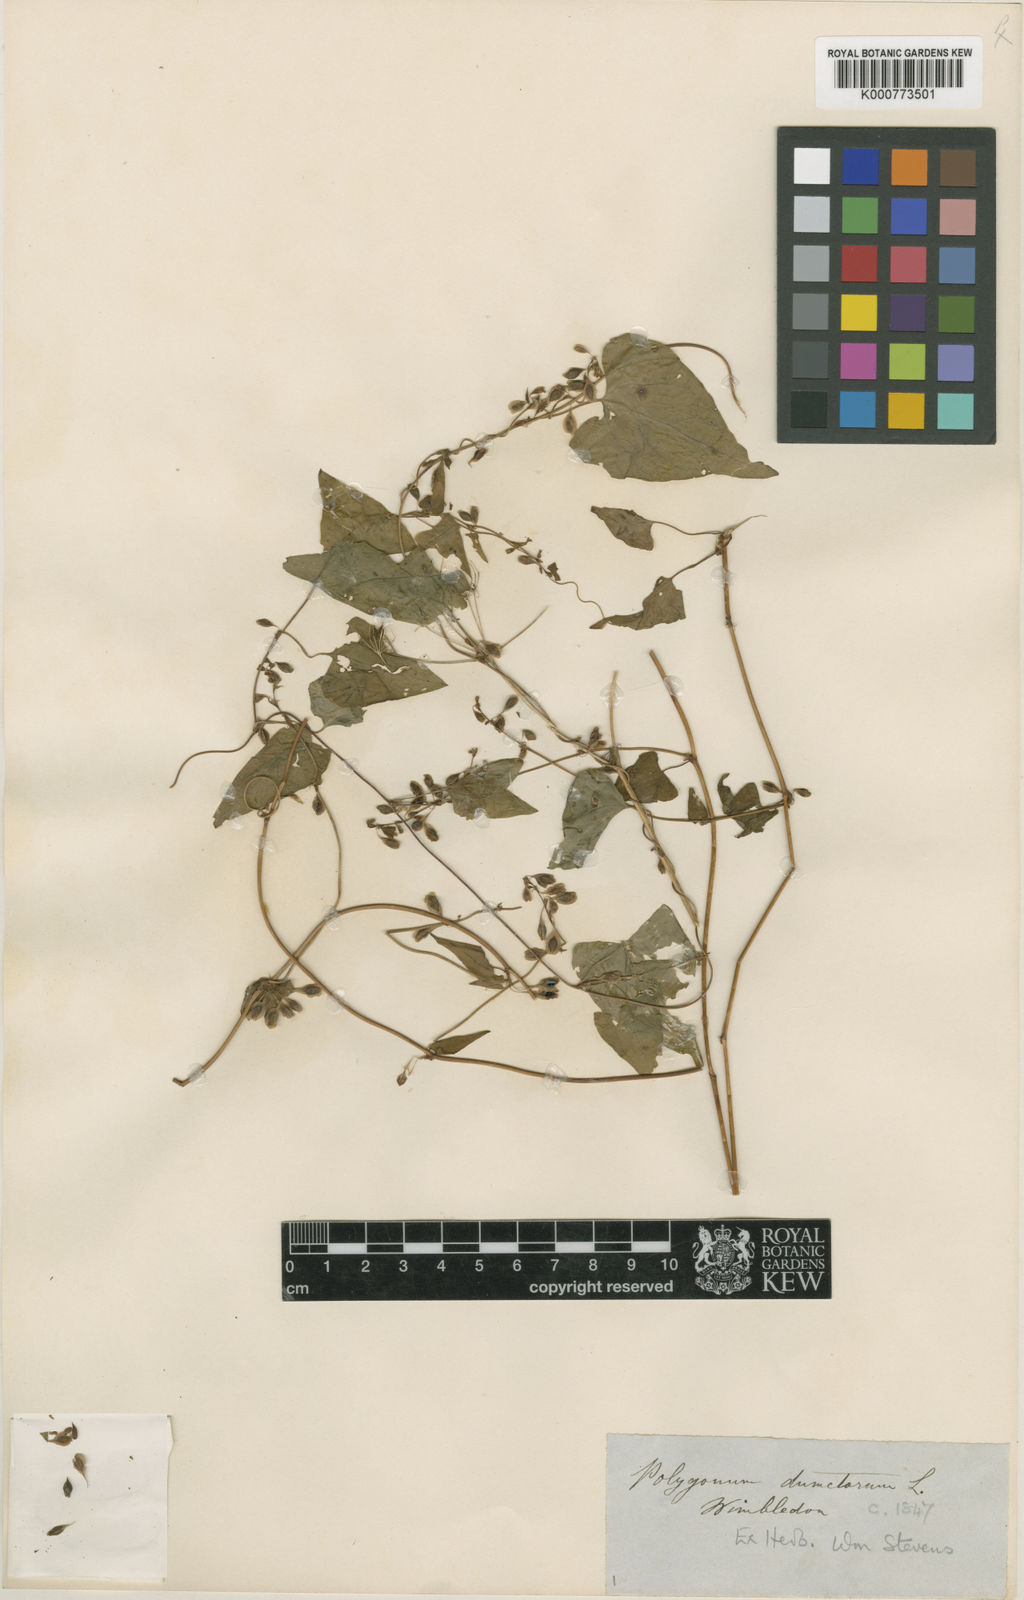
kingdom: Plantae
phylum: Tracheophyta
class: Magnoliopsida
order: Caryophyllales
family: Polygonaceae
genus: Fallopia
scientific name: Fallopia dumetorum
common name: Copse-bindweed
